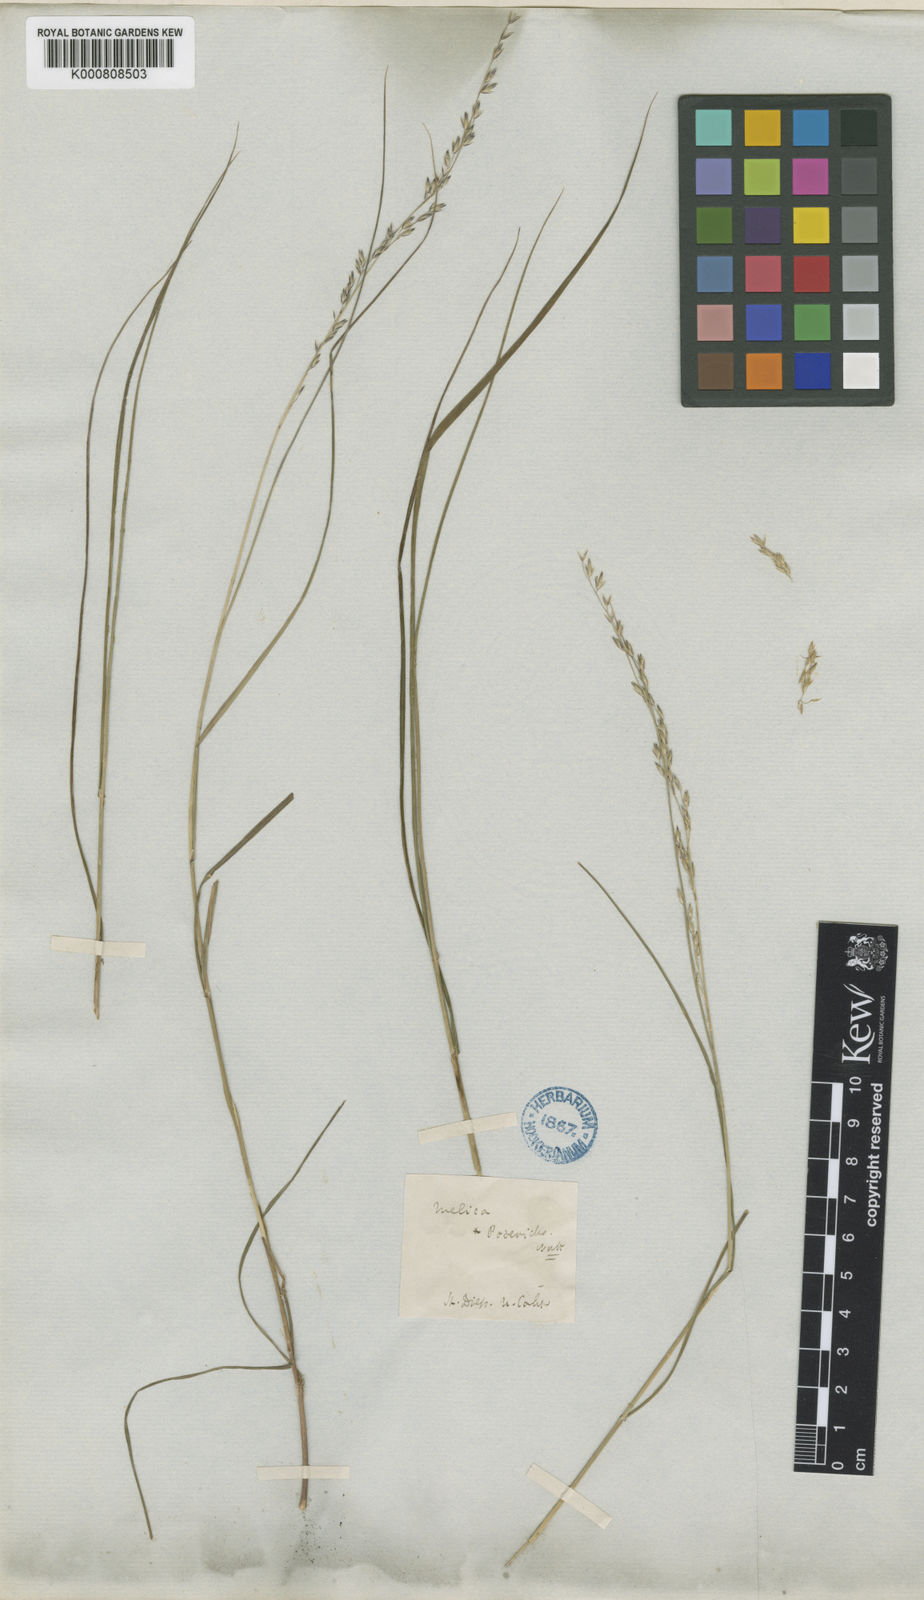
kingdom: Plantae
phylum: Tracheophyta
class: Liliopsida
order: Poales
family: Poaceae
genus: Melica
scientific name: Melica imperfecta
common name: California melic
